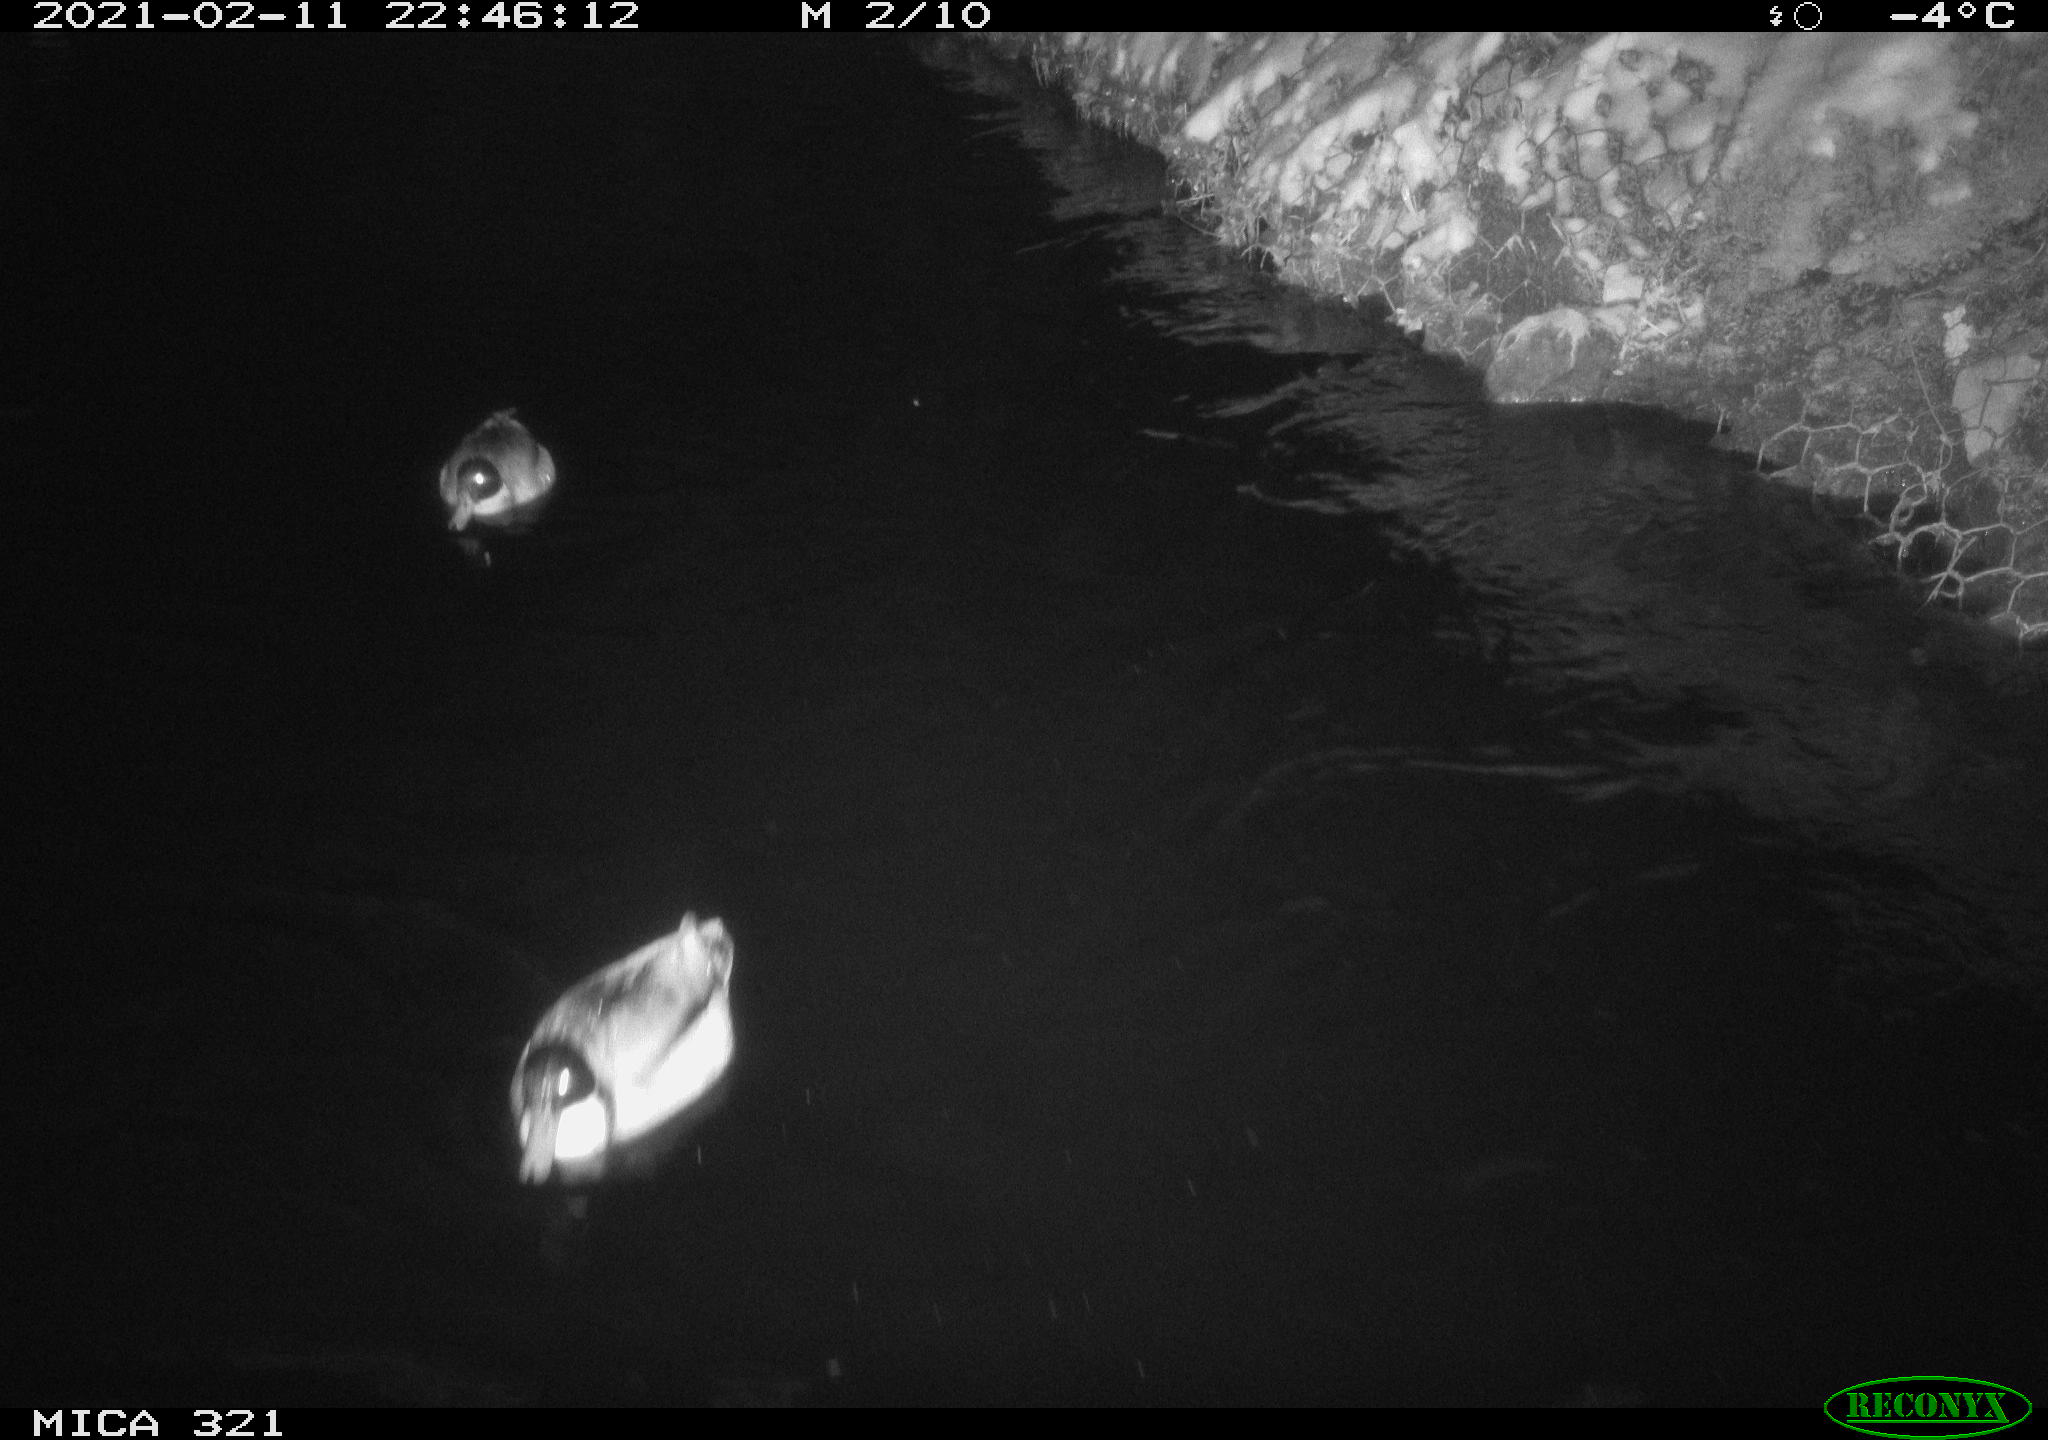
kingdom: Animalia
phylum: Chordata
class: Aves
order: Anseriformes
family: Anatidae
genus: Anas
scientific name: Anas platyrhynchos
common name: Mallard
